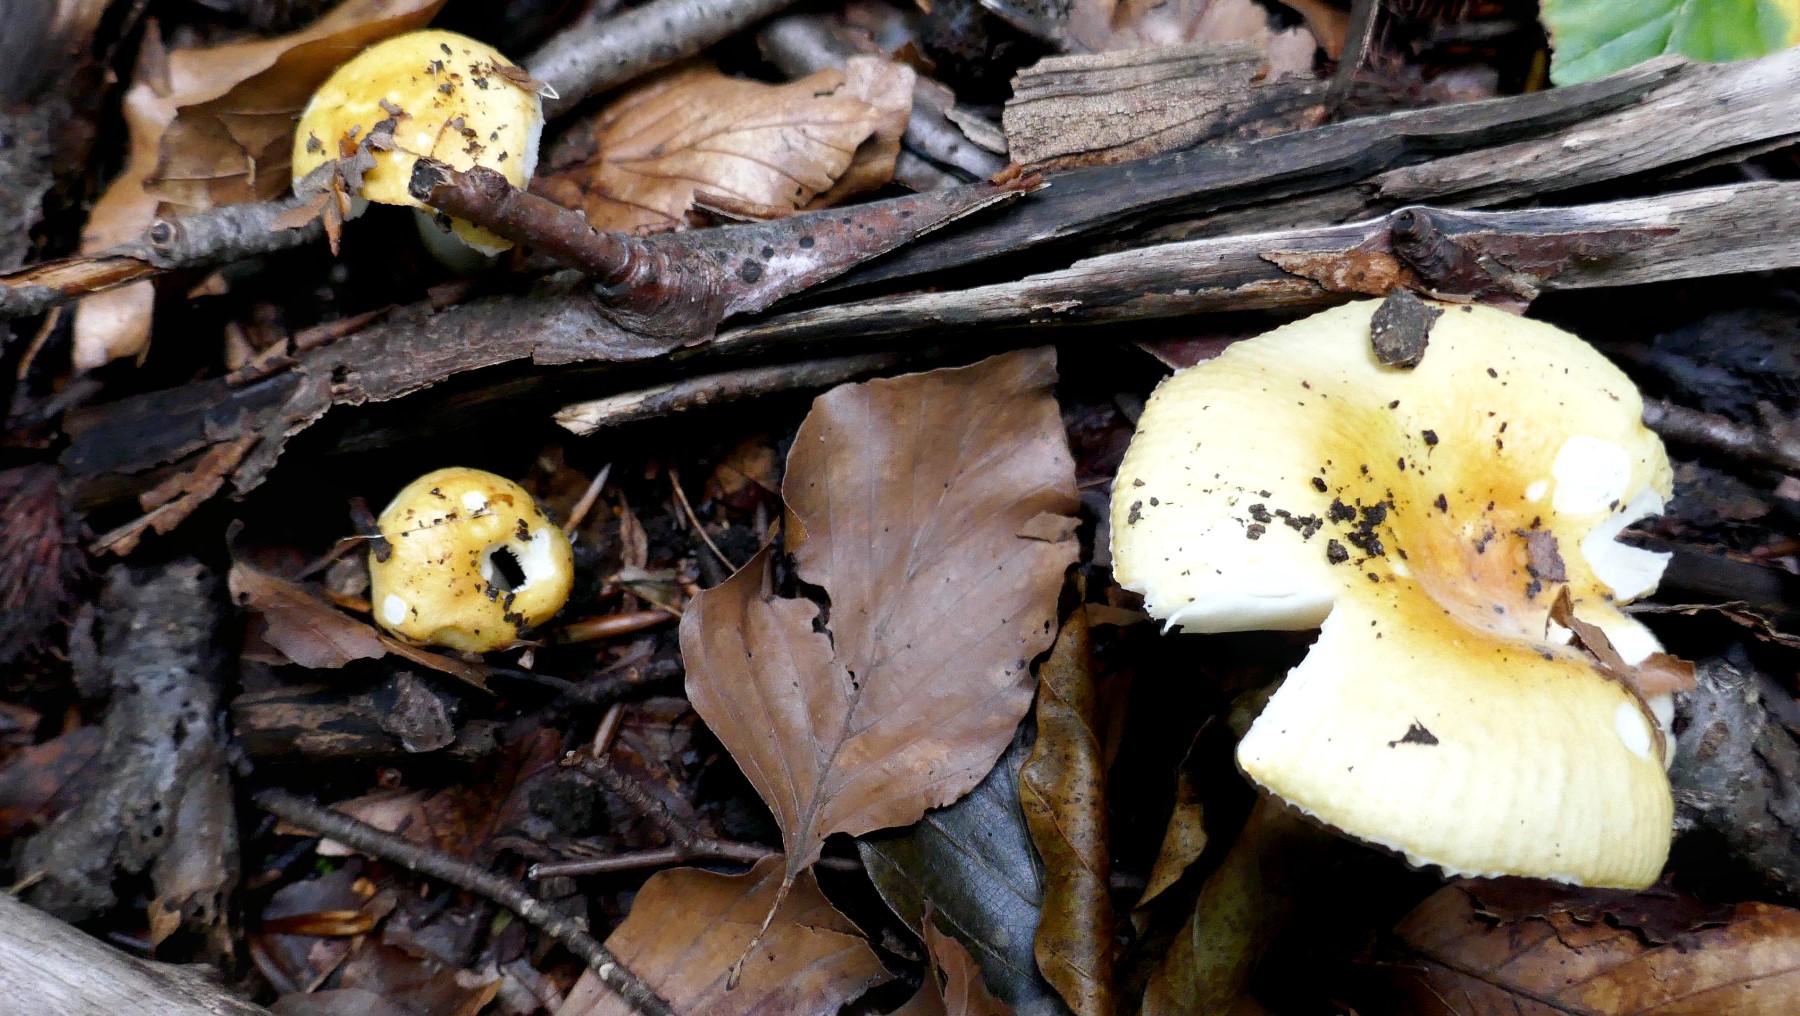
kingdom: Fungi
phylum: Basidiomycota
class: Agaricomycetes
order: Russulales
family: Russulaceae
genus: Russula
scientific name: Russula solaris
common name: sol-skørhat
